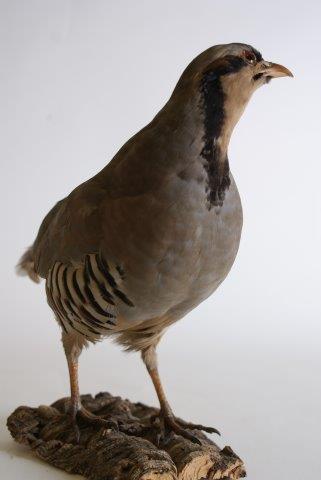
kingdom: Animalia
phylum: Chordata
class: Aves
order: Galliformes
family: Phasianidae
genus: Alectoris
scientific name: Alectoris chukar
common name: Aziatische steenpatrijs
